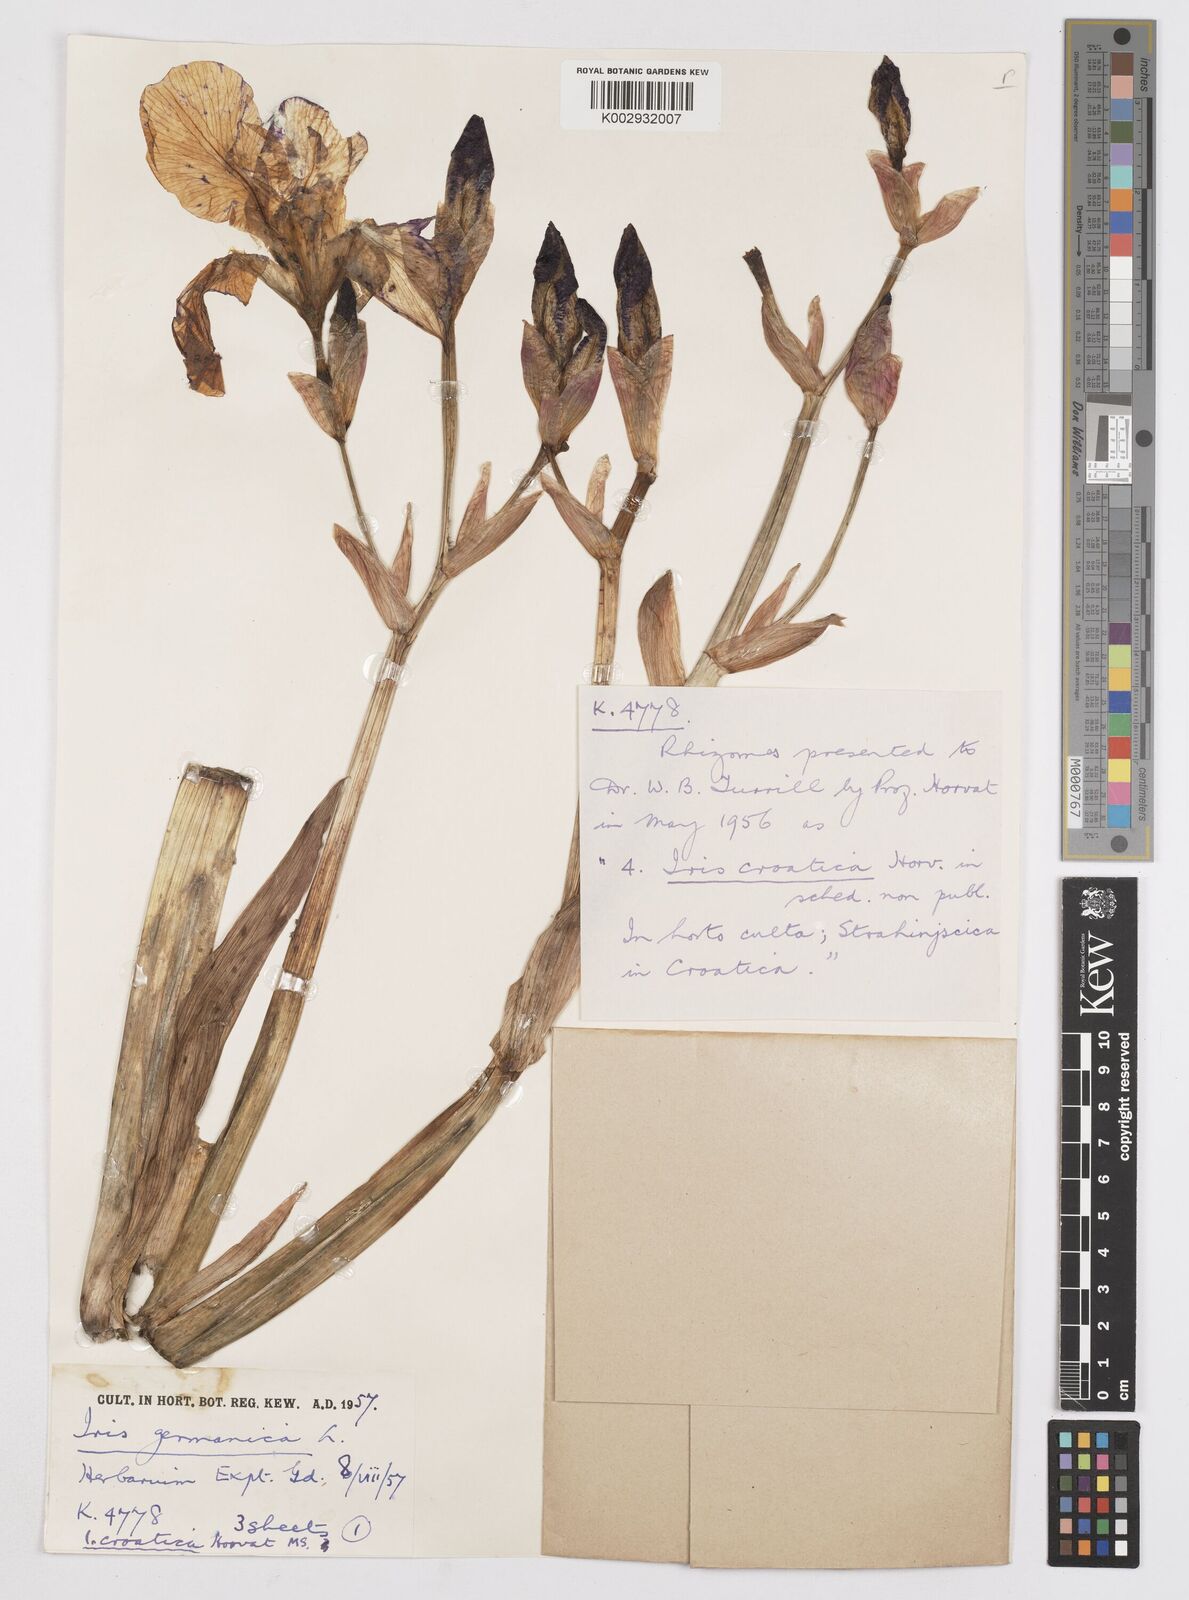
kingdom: Plantae
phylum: Tracheophyta
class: Liliopsida
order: Asparagales
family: Iridaceae
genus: Iris
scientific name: Iris germanica
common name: German iris
